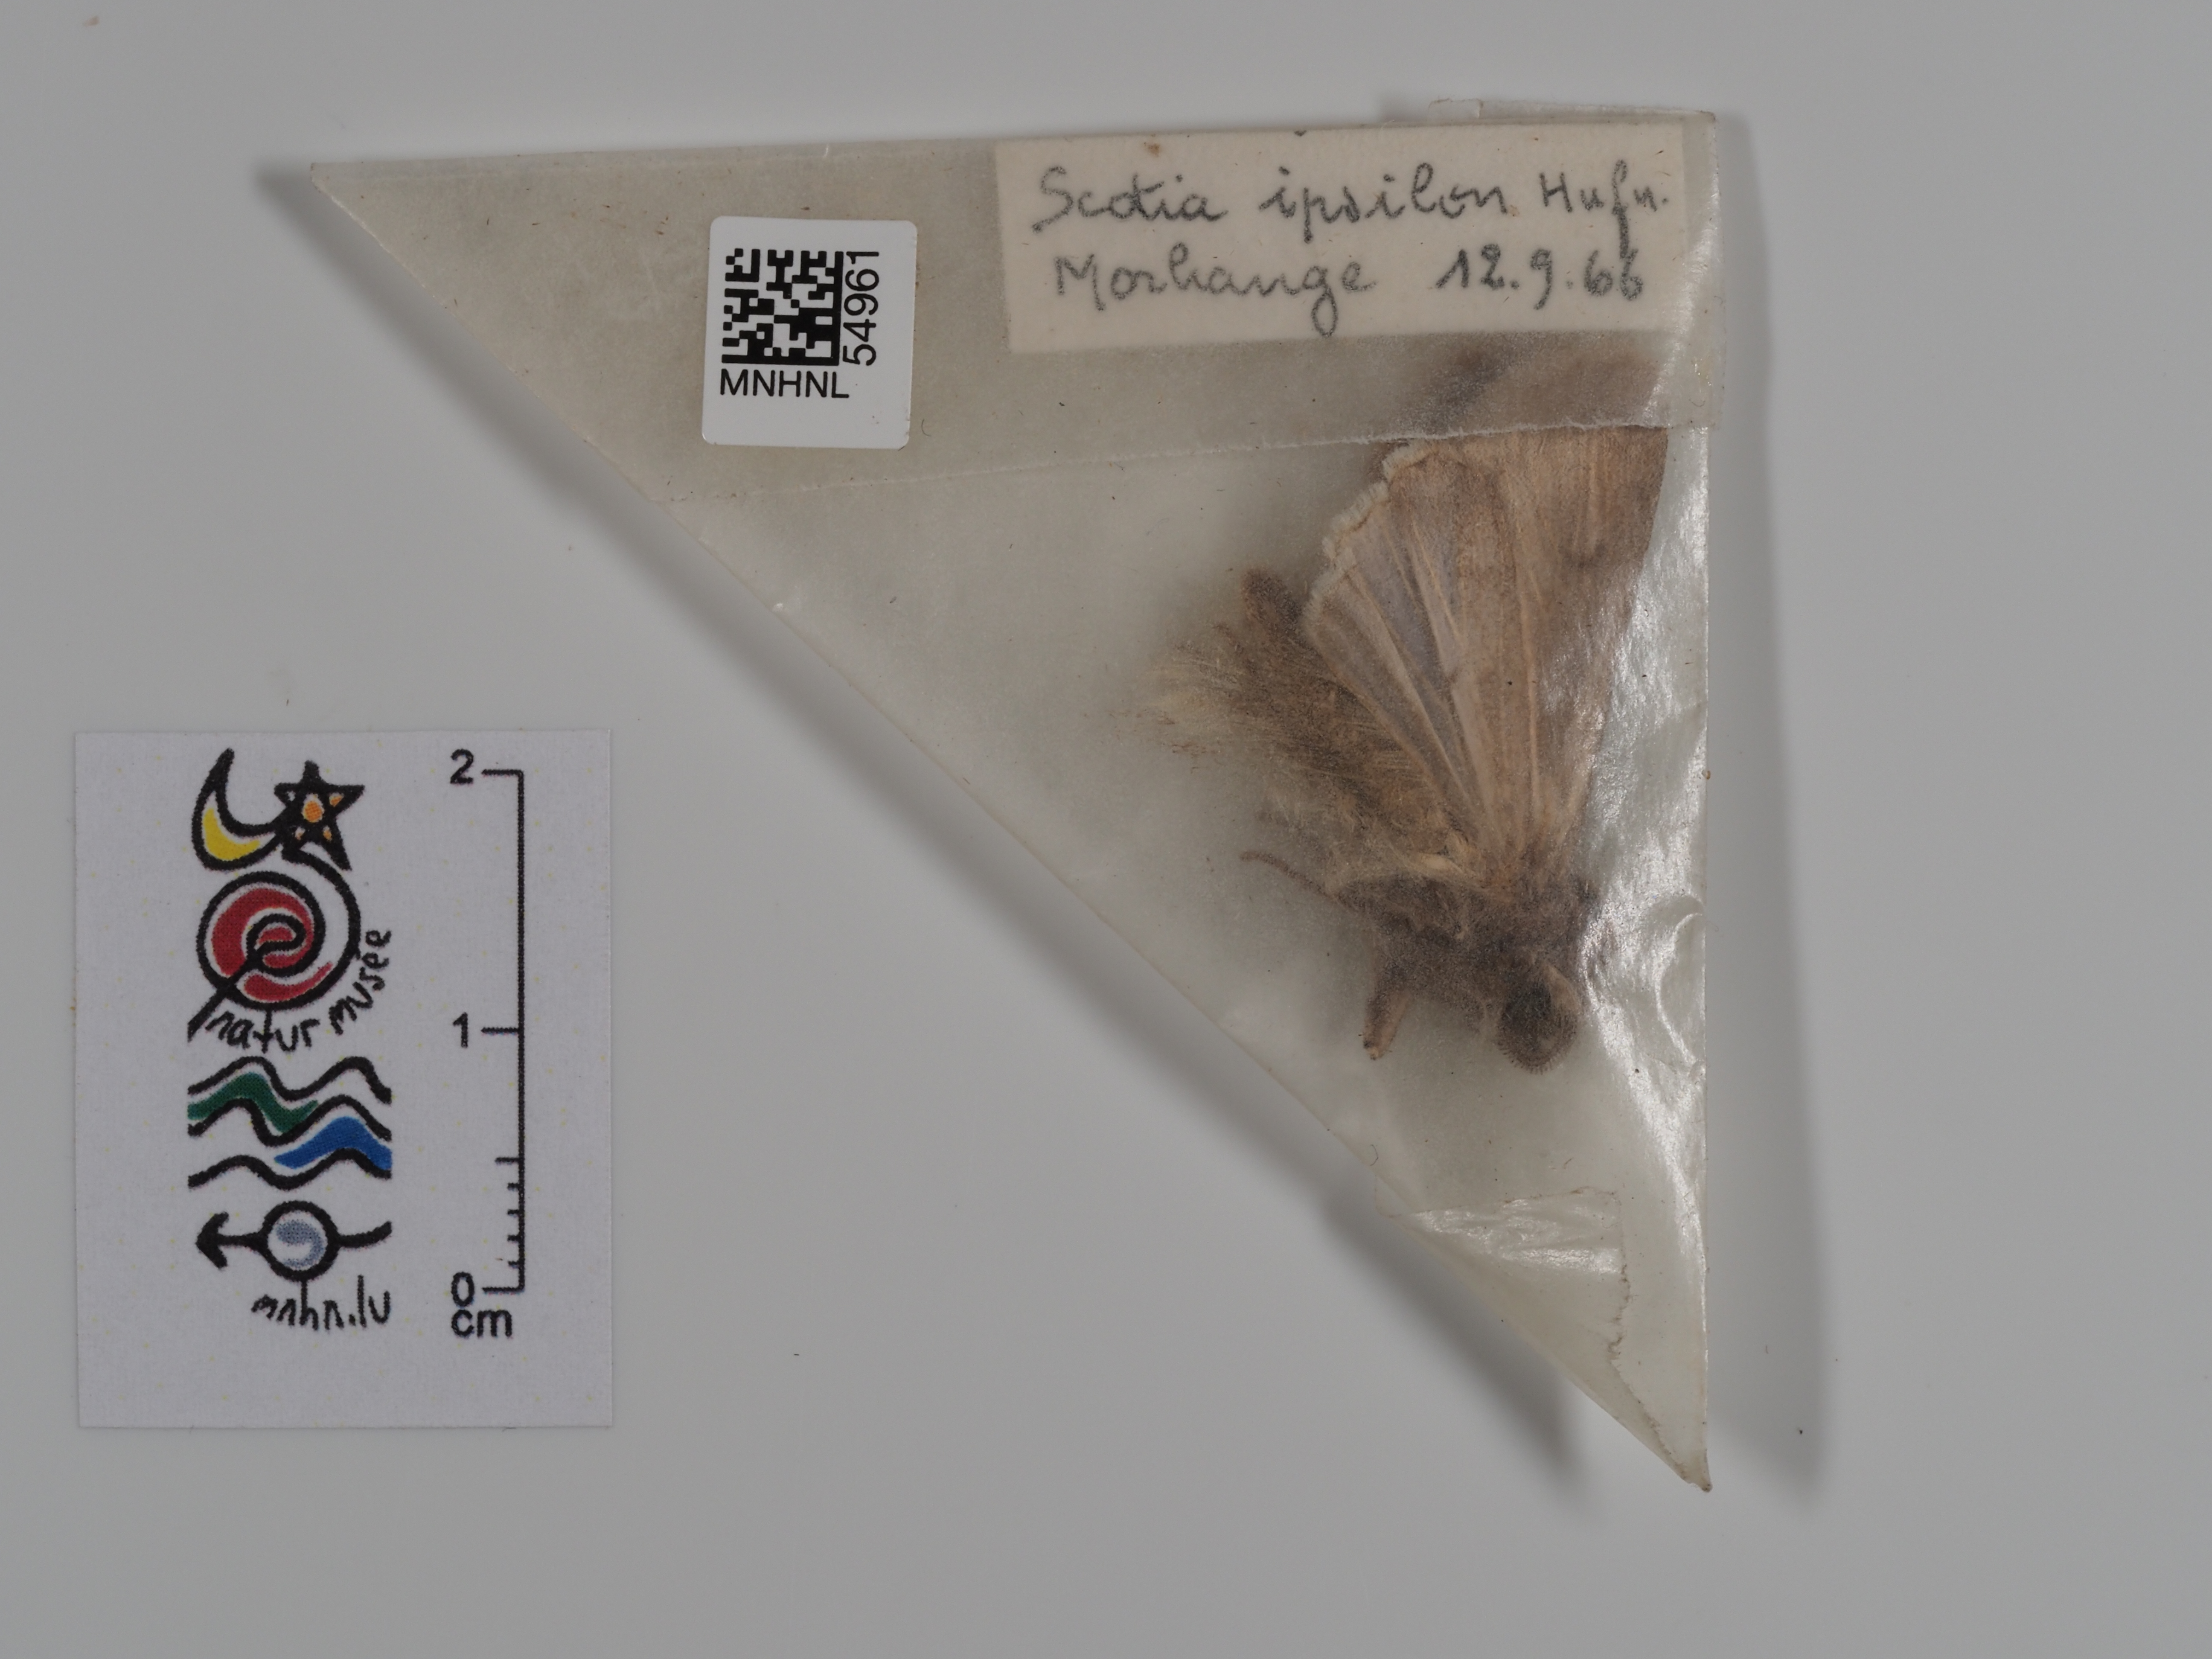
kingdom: Animalia
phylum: Arthropoda
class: Insecta
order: Lepidoptera
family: Noctuidae
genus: Agrotis
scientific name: Agrotis ipsilon
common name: Dark sword-grass
